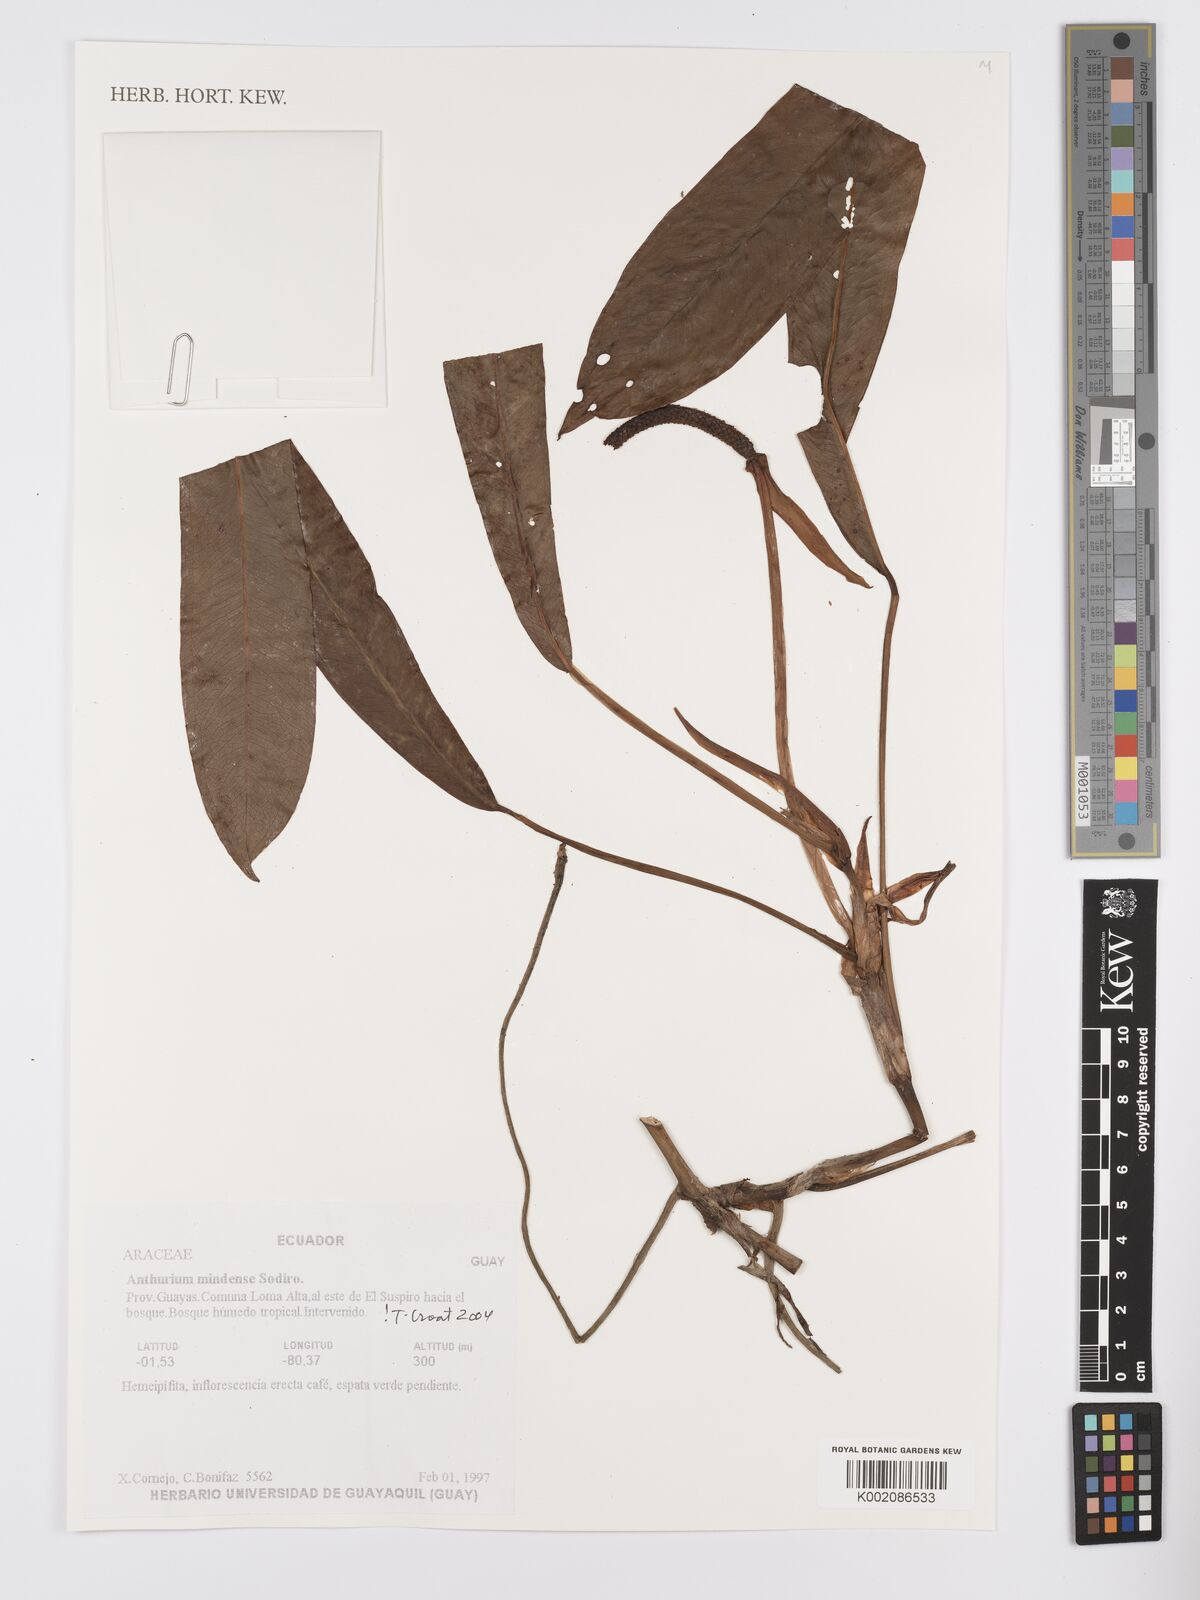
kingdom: Plantae
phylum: Tracheophyta
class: Liliopsida
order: Alismatales
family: Araceae
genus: Anthurium
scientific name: Anthurium mindense
